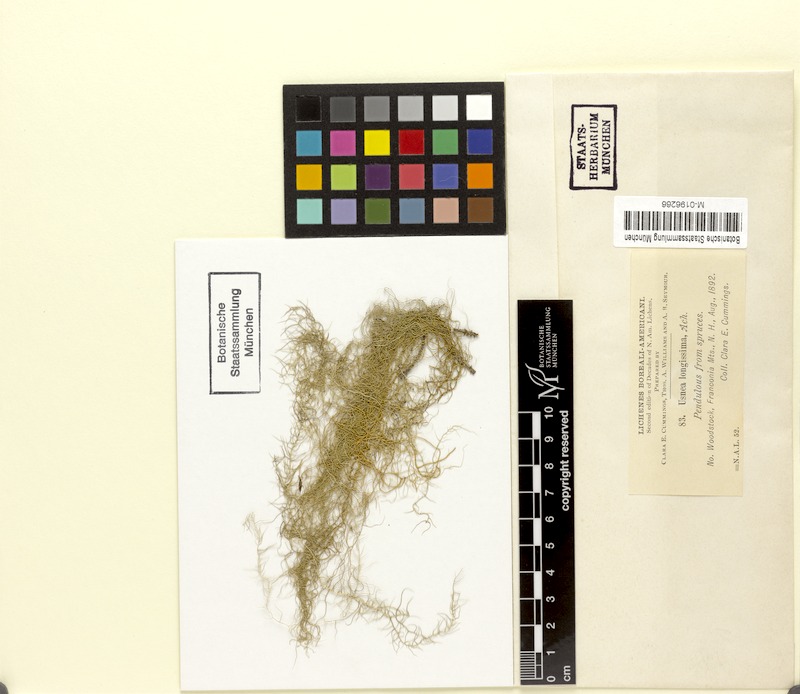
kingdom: Fungi
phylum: Ascomycota
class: Lecanoromycetes
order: Lecanorales
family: Parmeliaceae
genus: Dolichousnea
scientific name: Dolichousnea longissima
